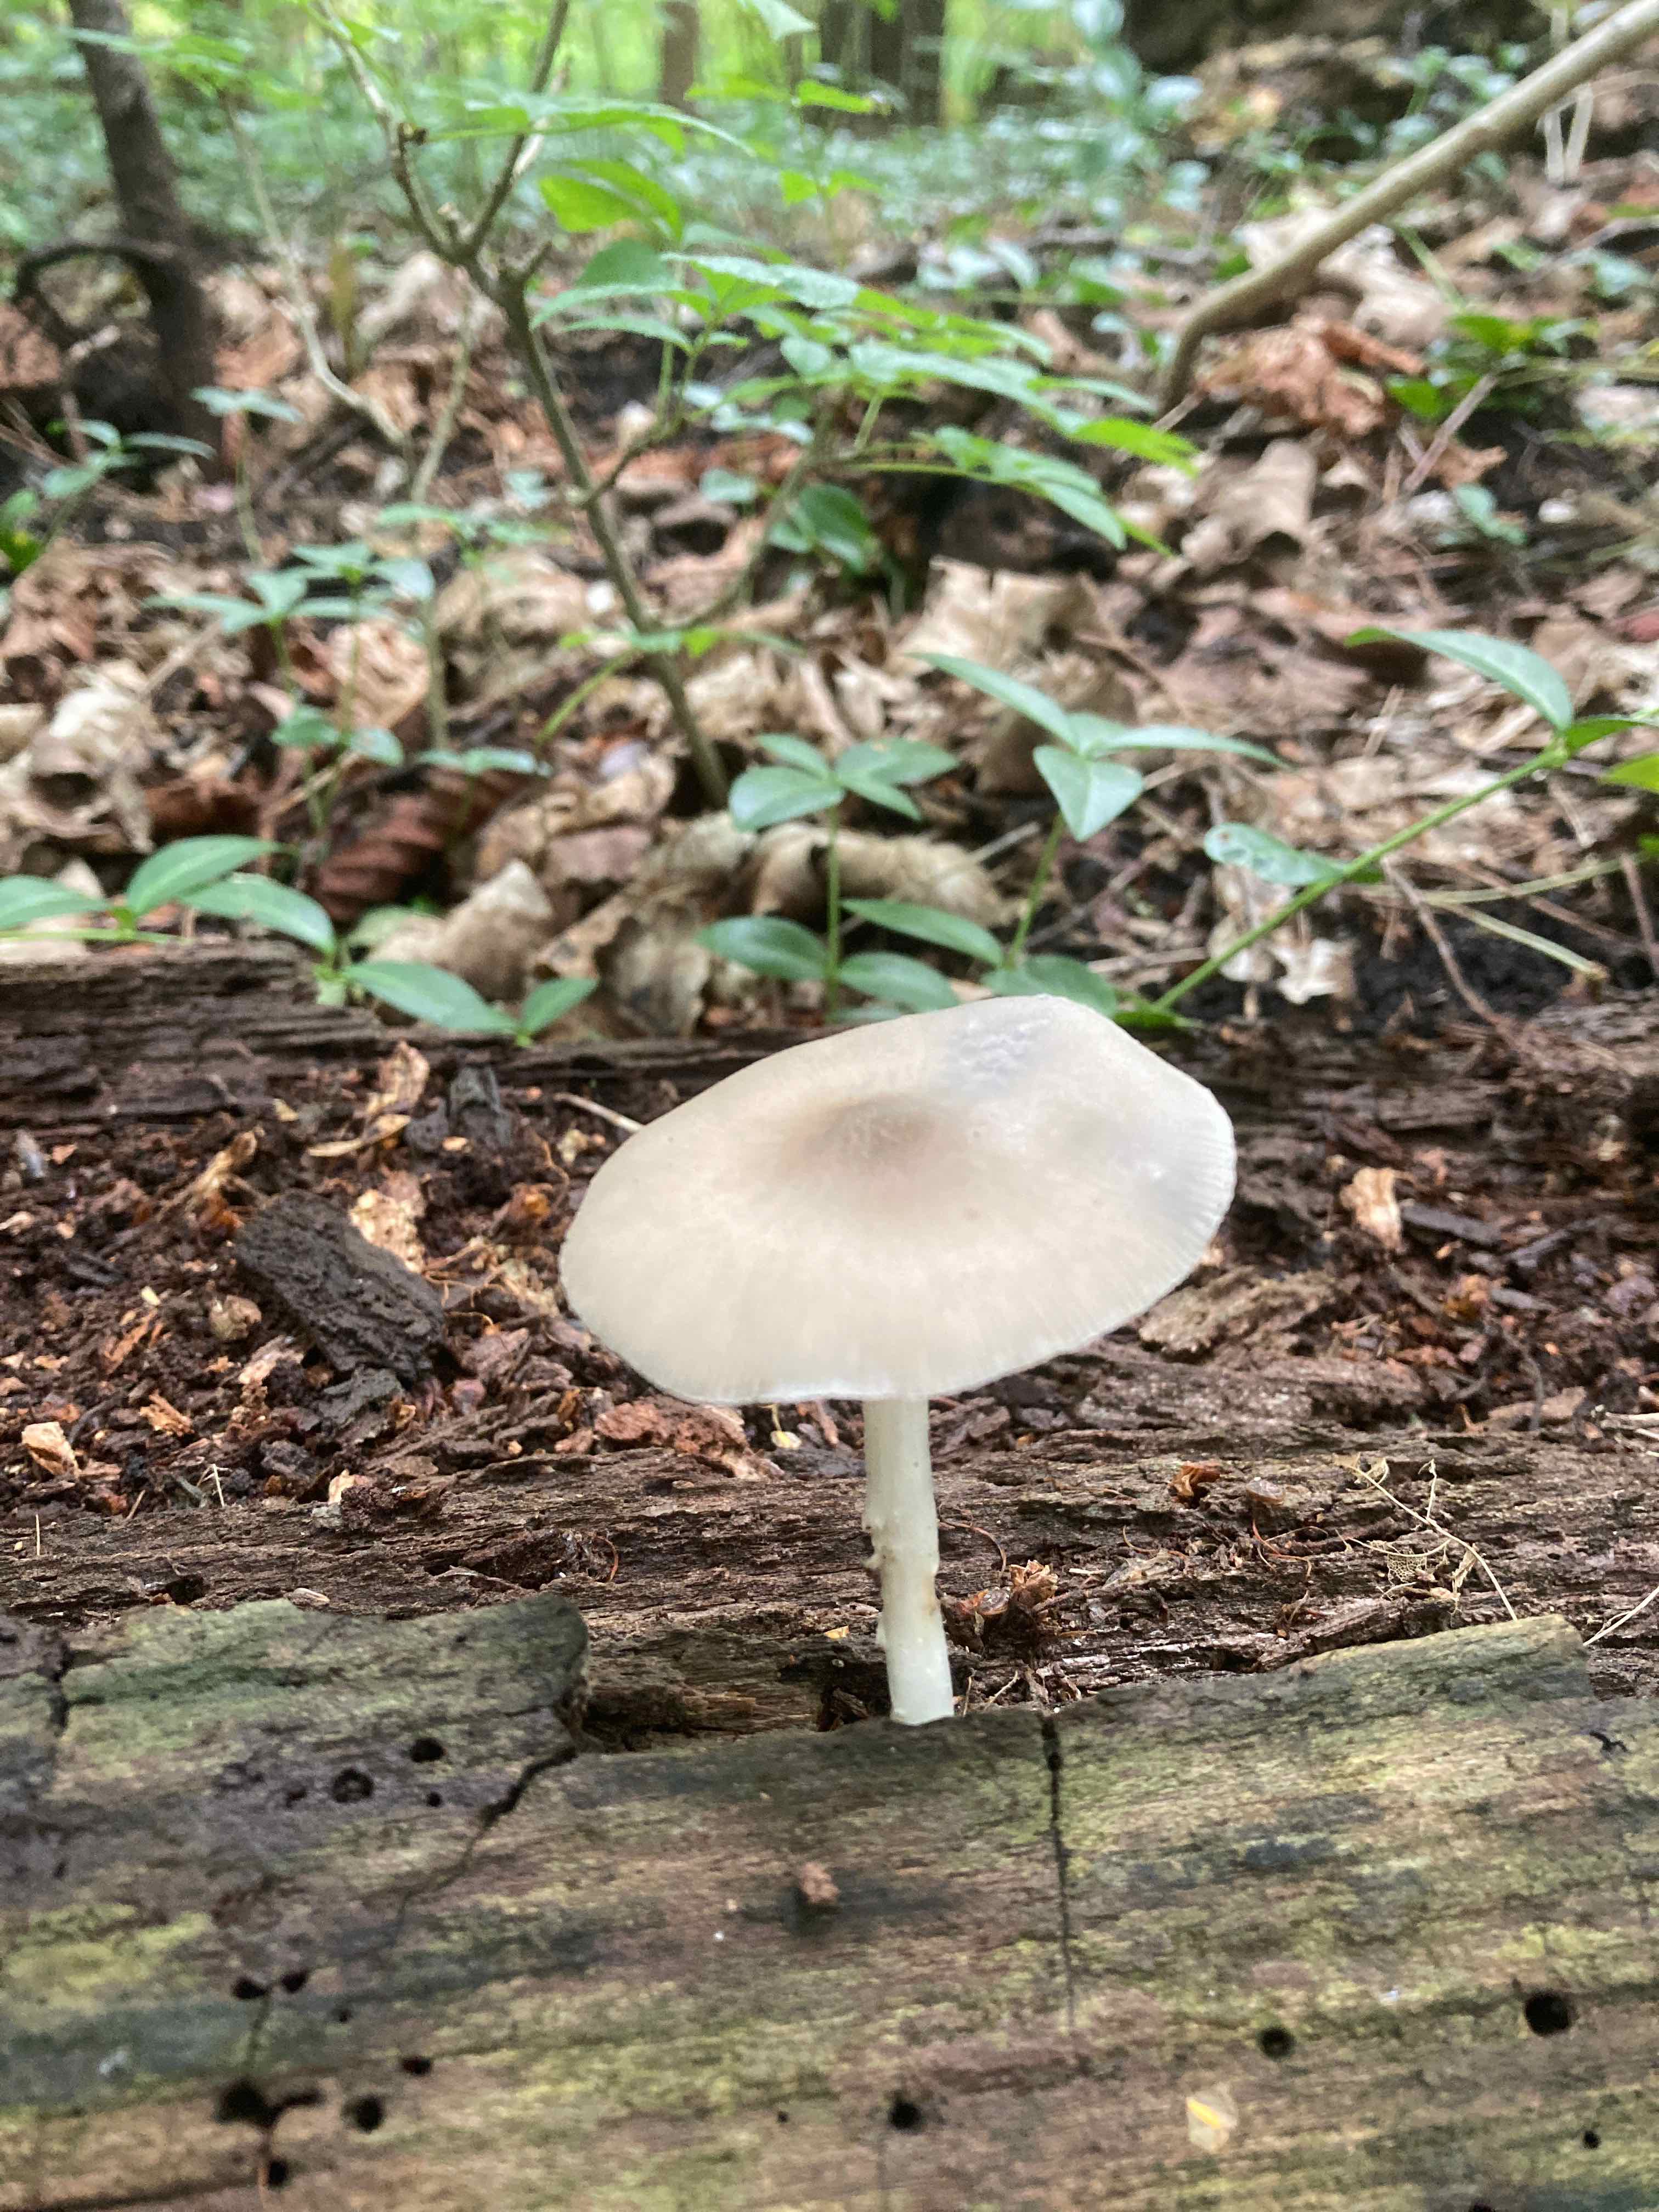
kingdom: Fungi
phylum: Basidiomycota
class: Agaricomycetes
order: Agaricales
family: Pluteaceae
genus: Pluteus
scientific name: Pluteus salicinus
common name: stiv skærmhat
